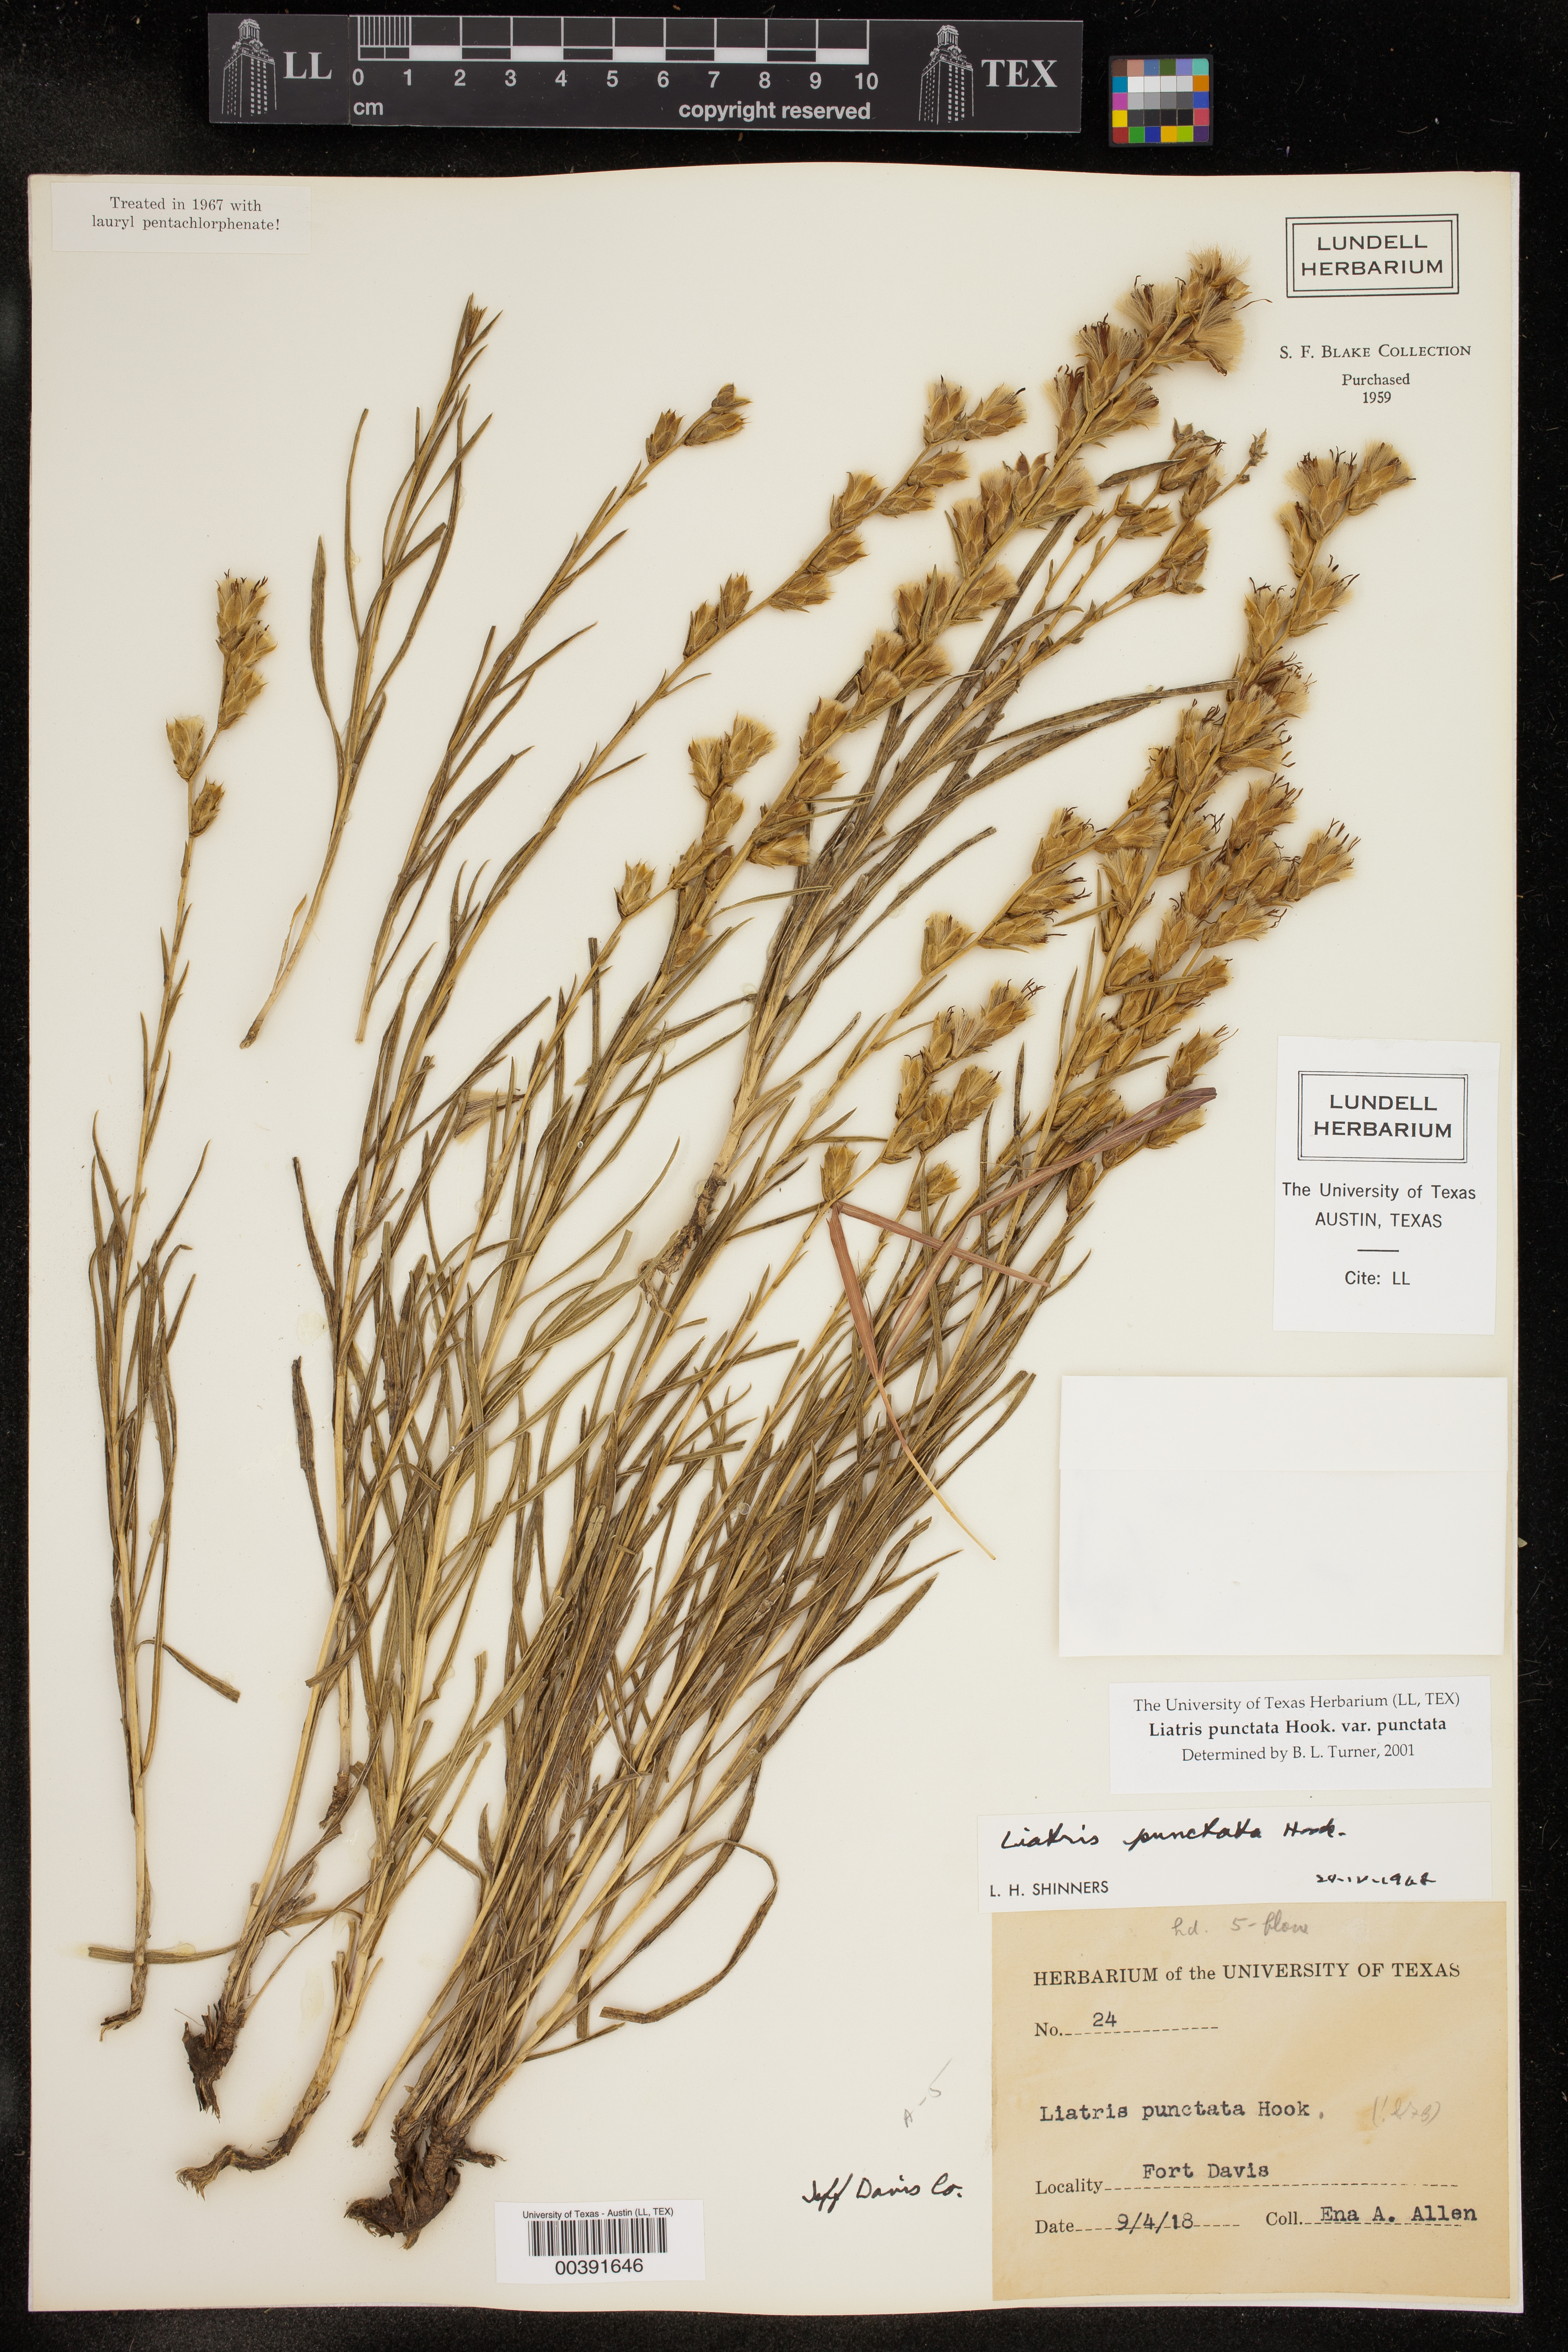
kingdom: Plantae
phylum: Tracheophyta
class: Magnoliopsida
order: Asterales
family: Asteraceae
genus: Liatris
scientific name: Liatris punctata
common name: Dotted gayfeather
